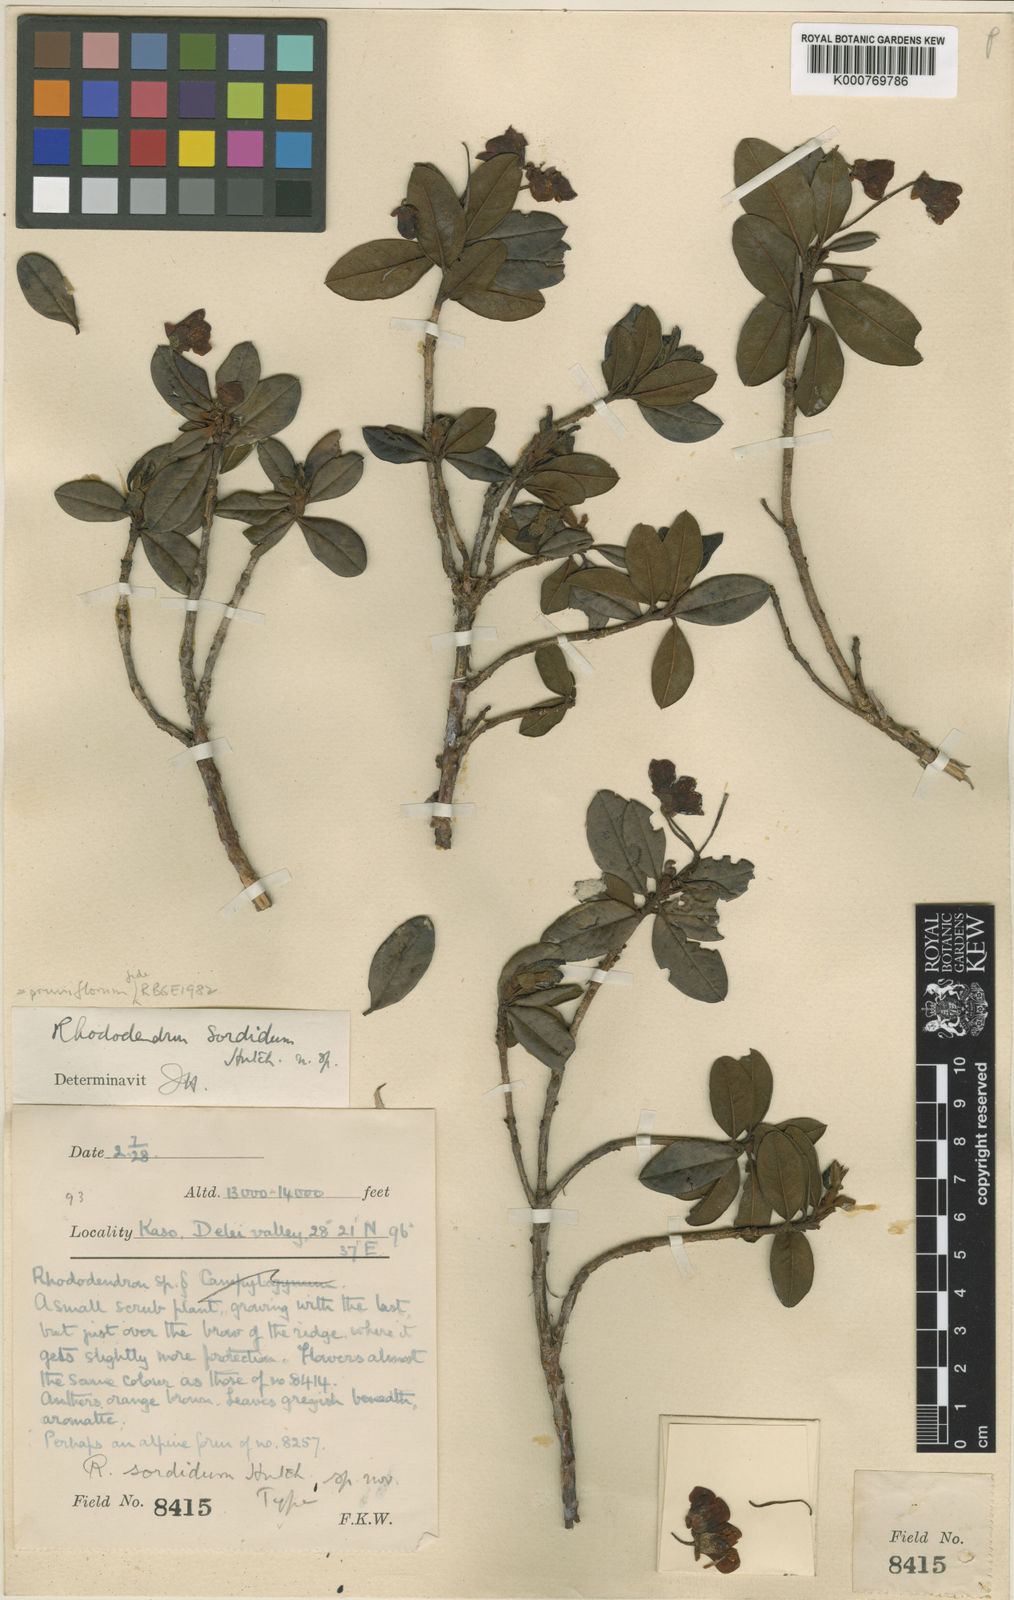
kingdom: Plantae
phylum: Tracheophyta
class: Magnoliopsida
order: Ericales
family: Ericaceae
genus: Rhododendron
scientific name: Rhododendron pruniflorum
